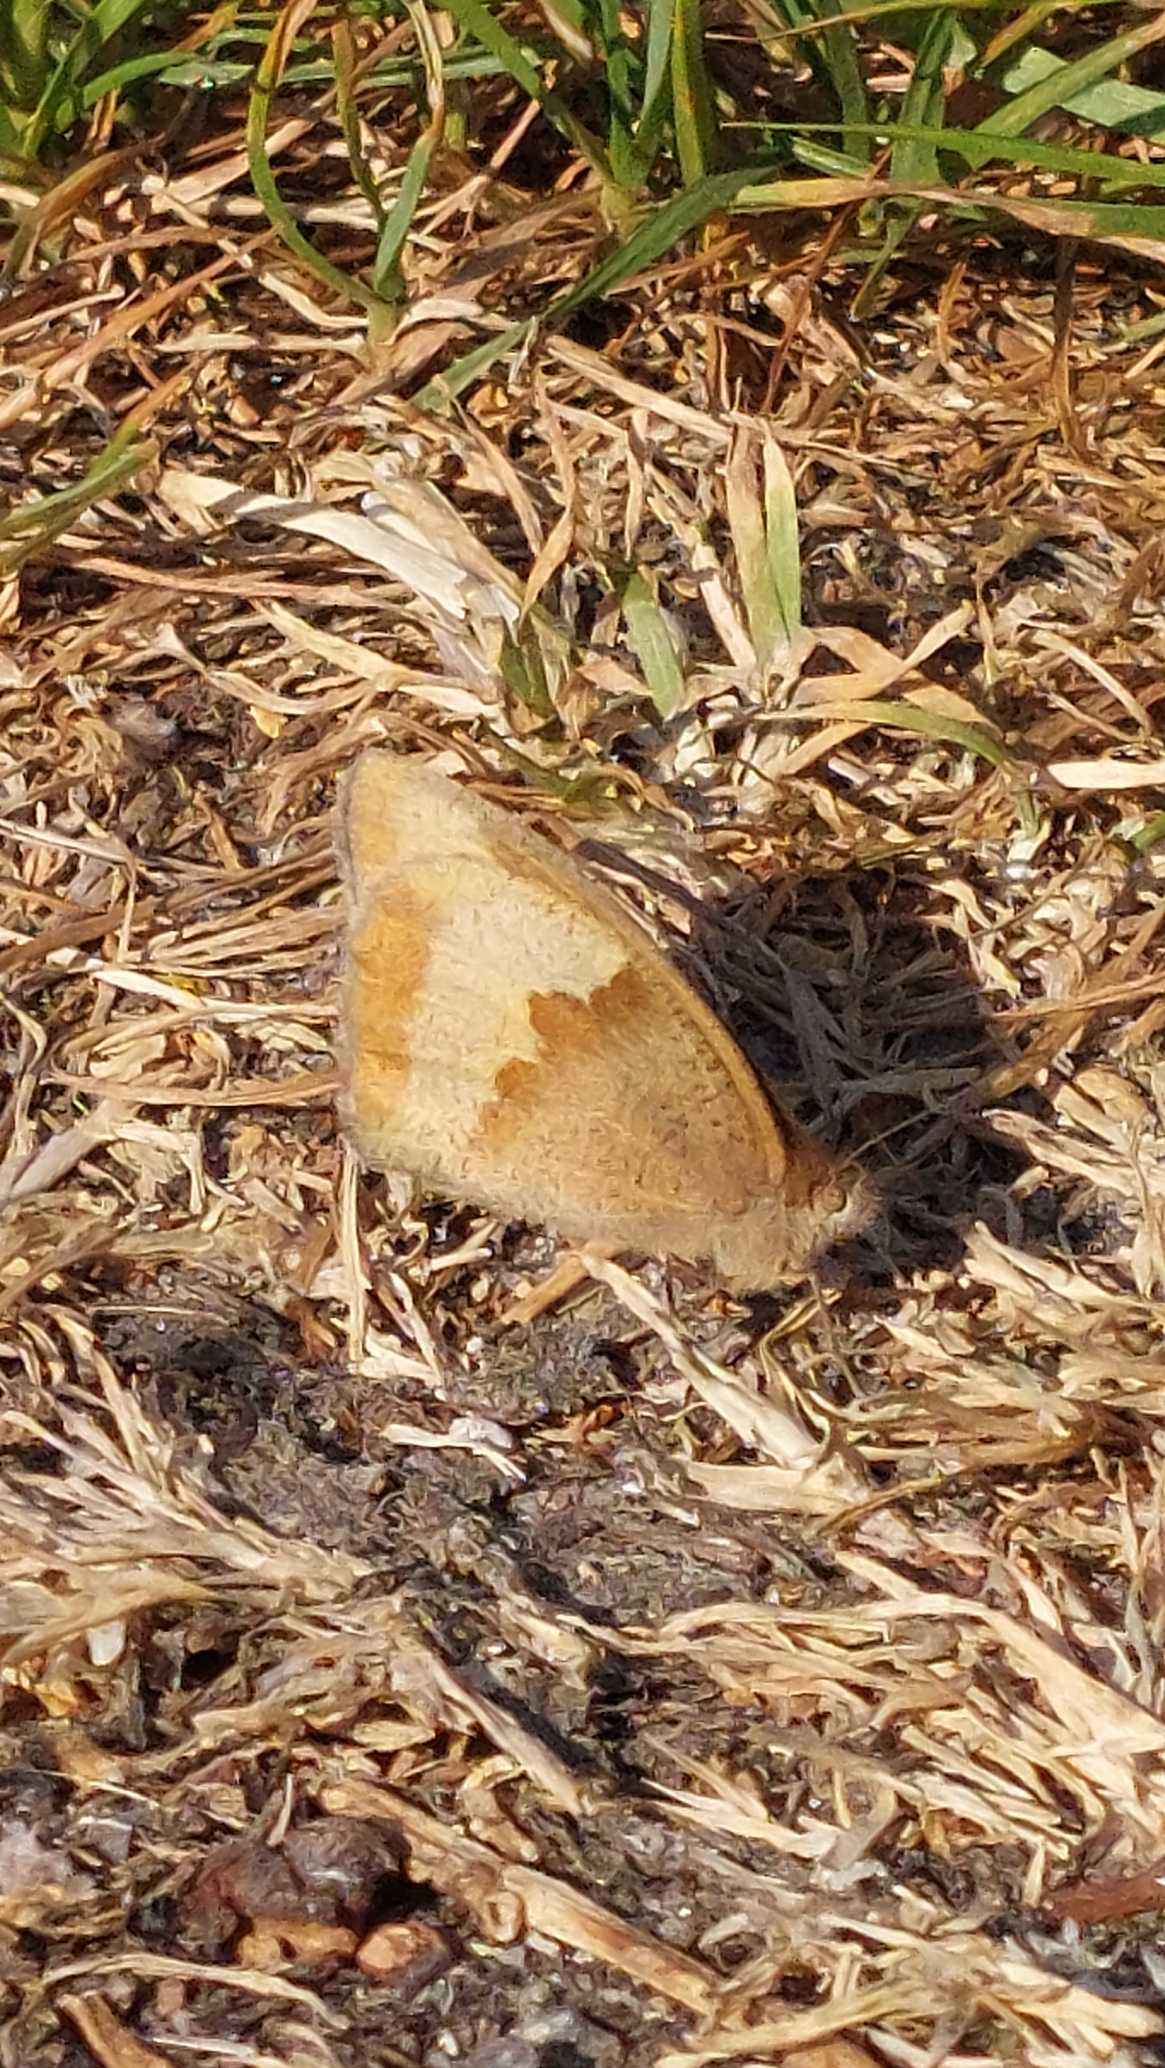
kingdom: Animalia
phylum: Arthropoda
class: Insecta
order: Lepidoptera
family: Nymphalidae
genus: Maniola
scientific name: Maniola jurtina
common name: Græsrandøje
